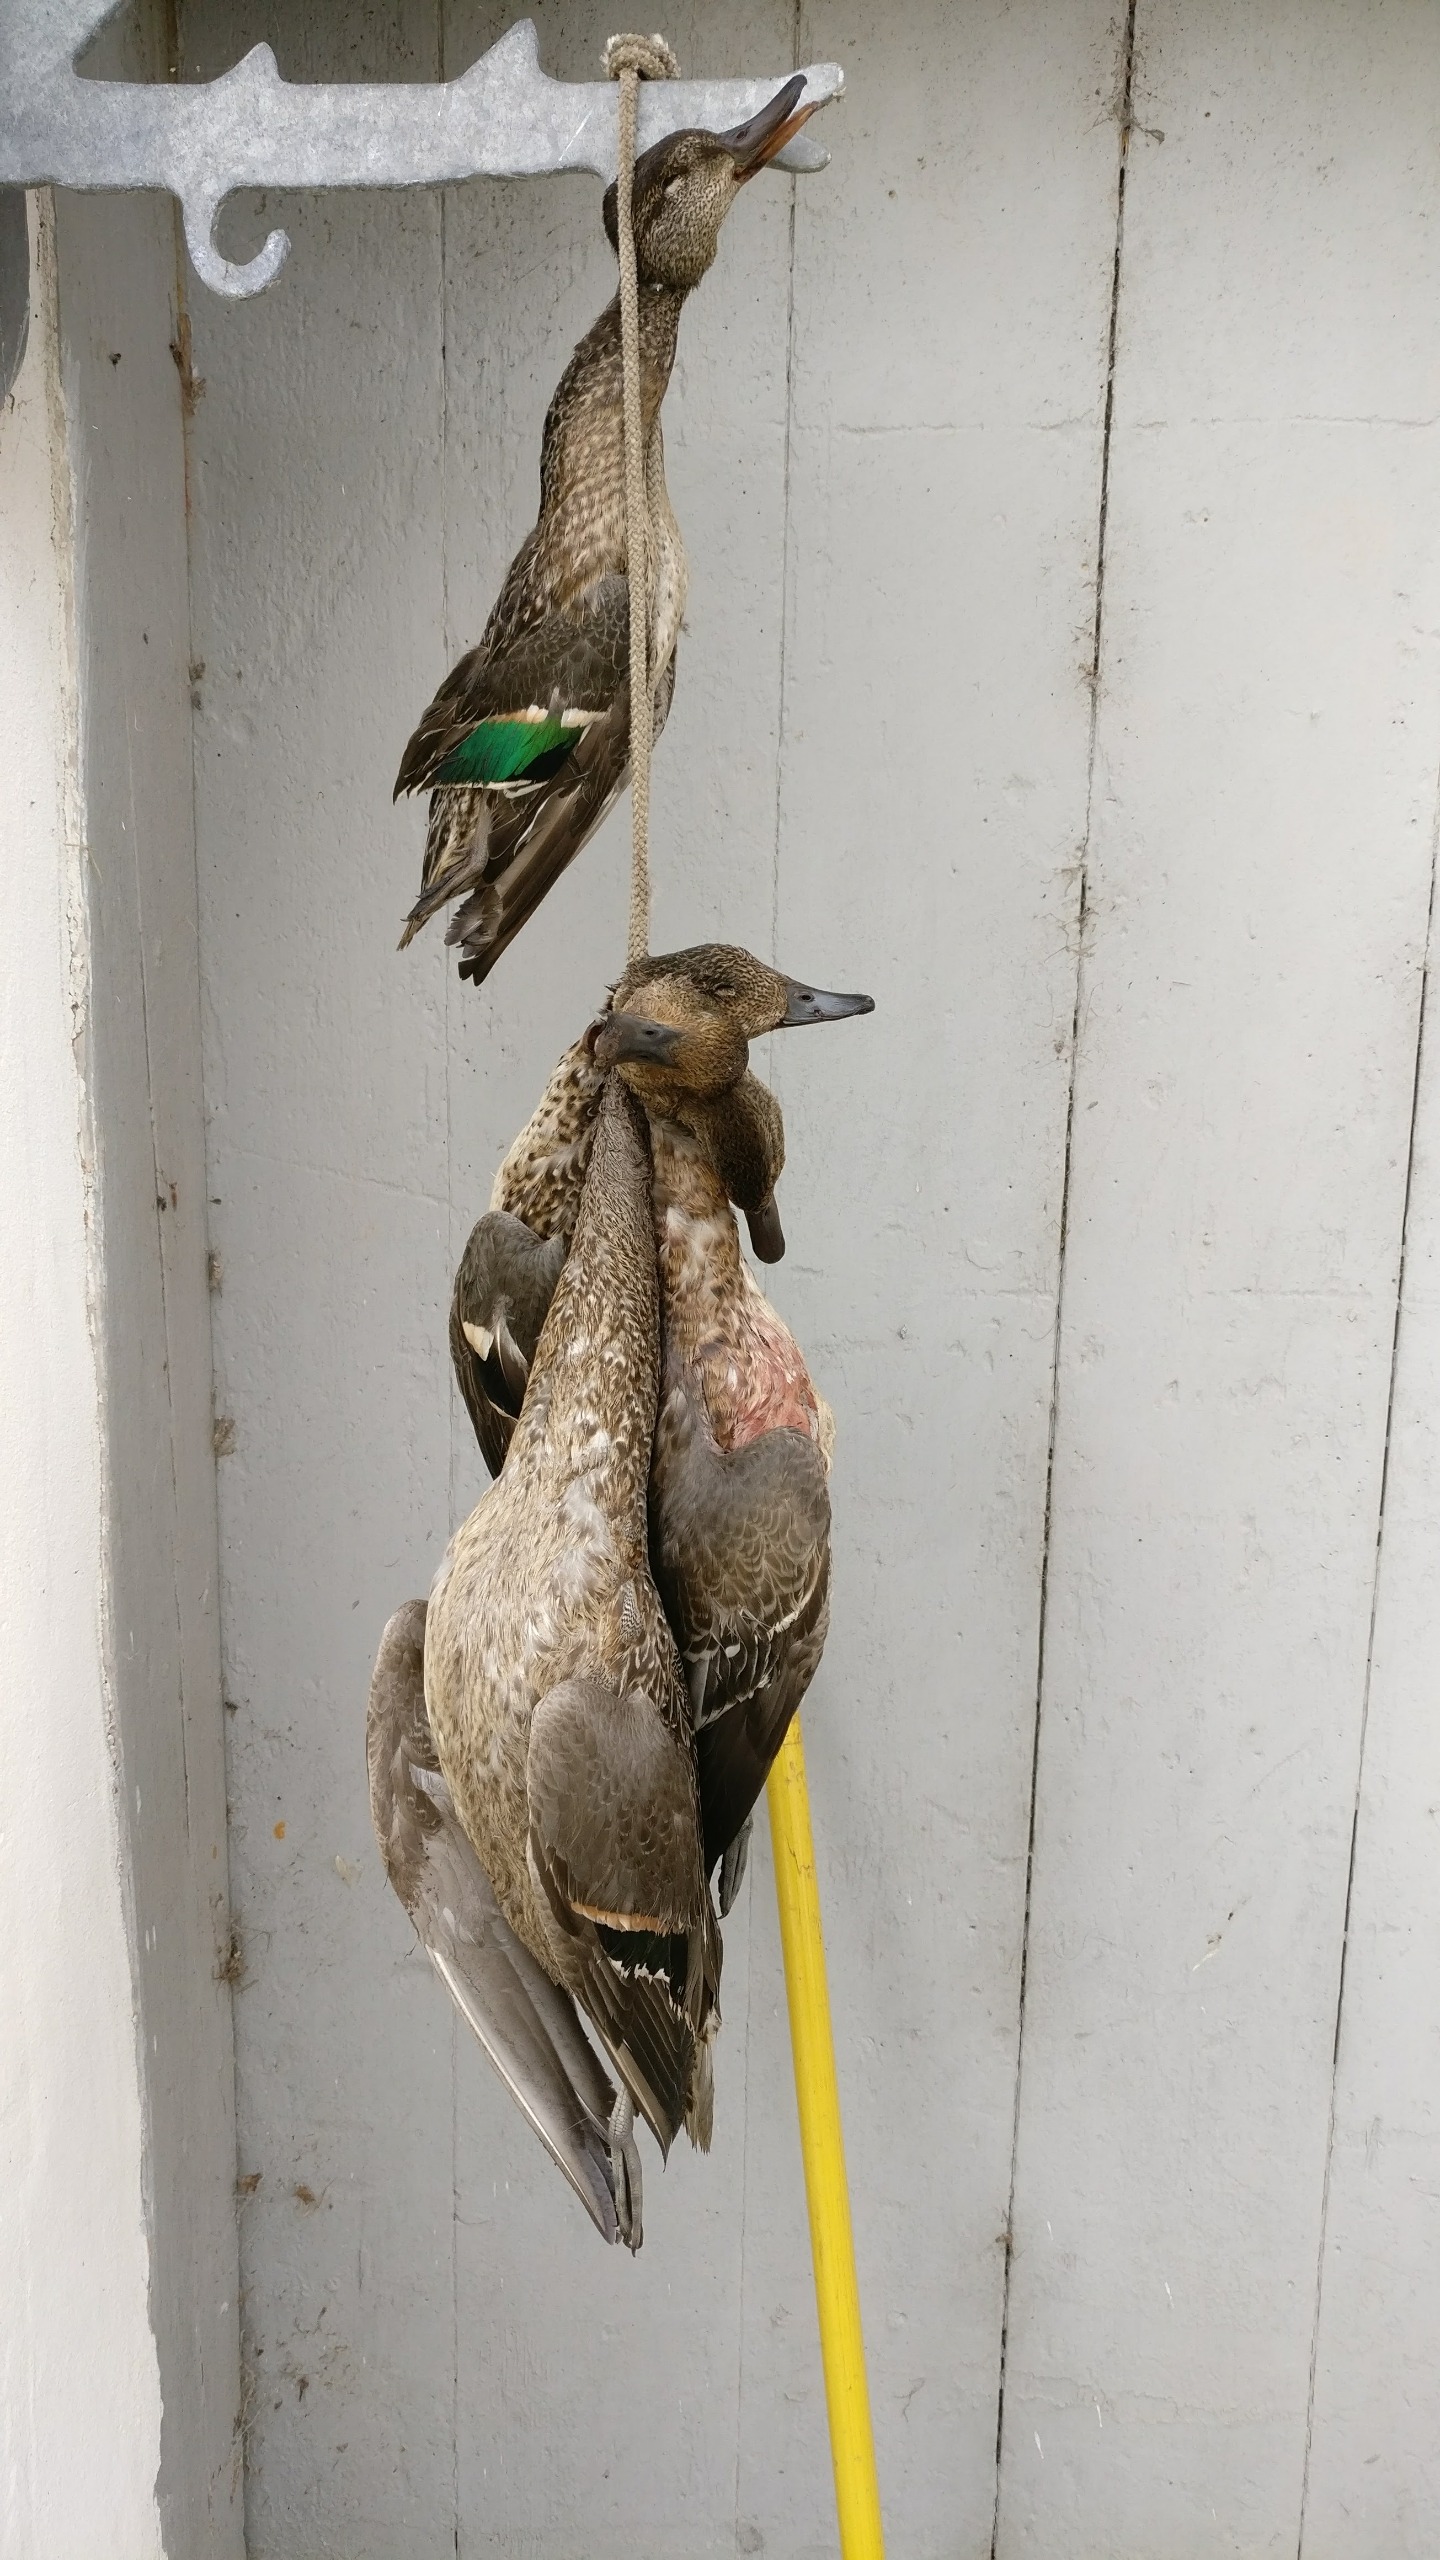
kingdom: Animalia
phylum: Chordata
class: Aves
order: Anseriformes
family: Anatidae
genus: Anas
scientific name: Anas acuta
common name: Spidsand
